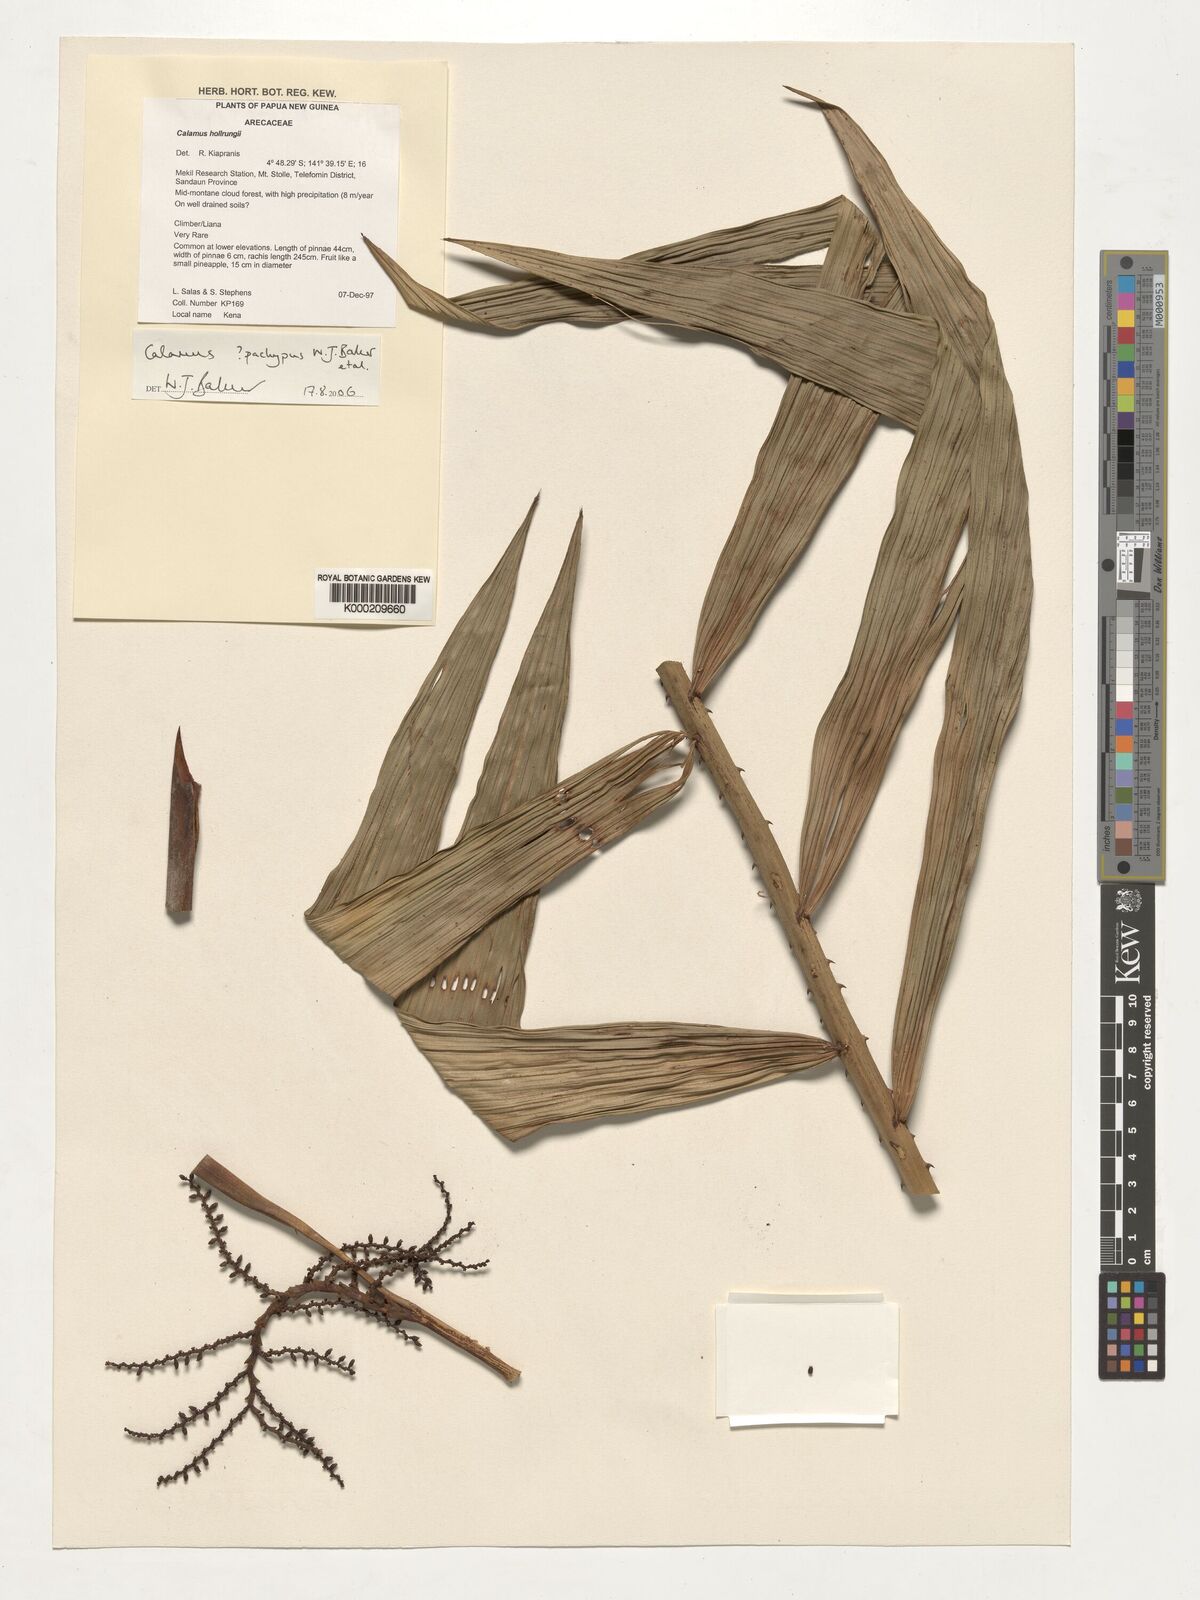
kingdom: Plantae
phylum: Tracheophyta
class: Liliopsida
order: Arecales
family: Arecaceae
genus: Calamus
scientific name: Calamus
